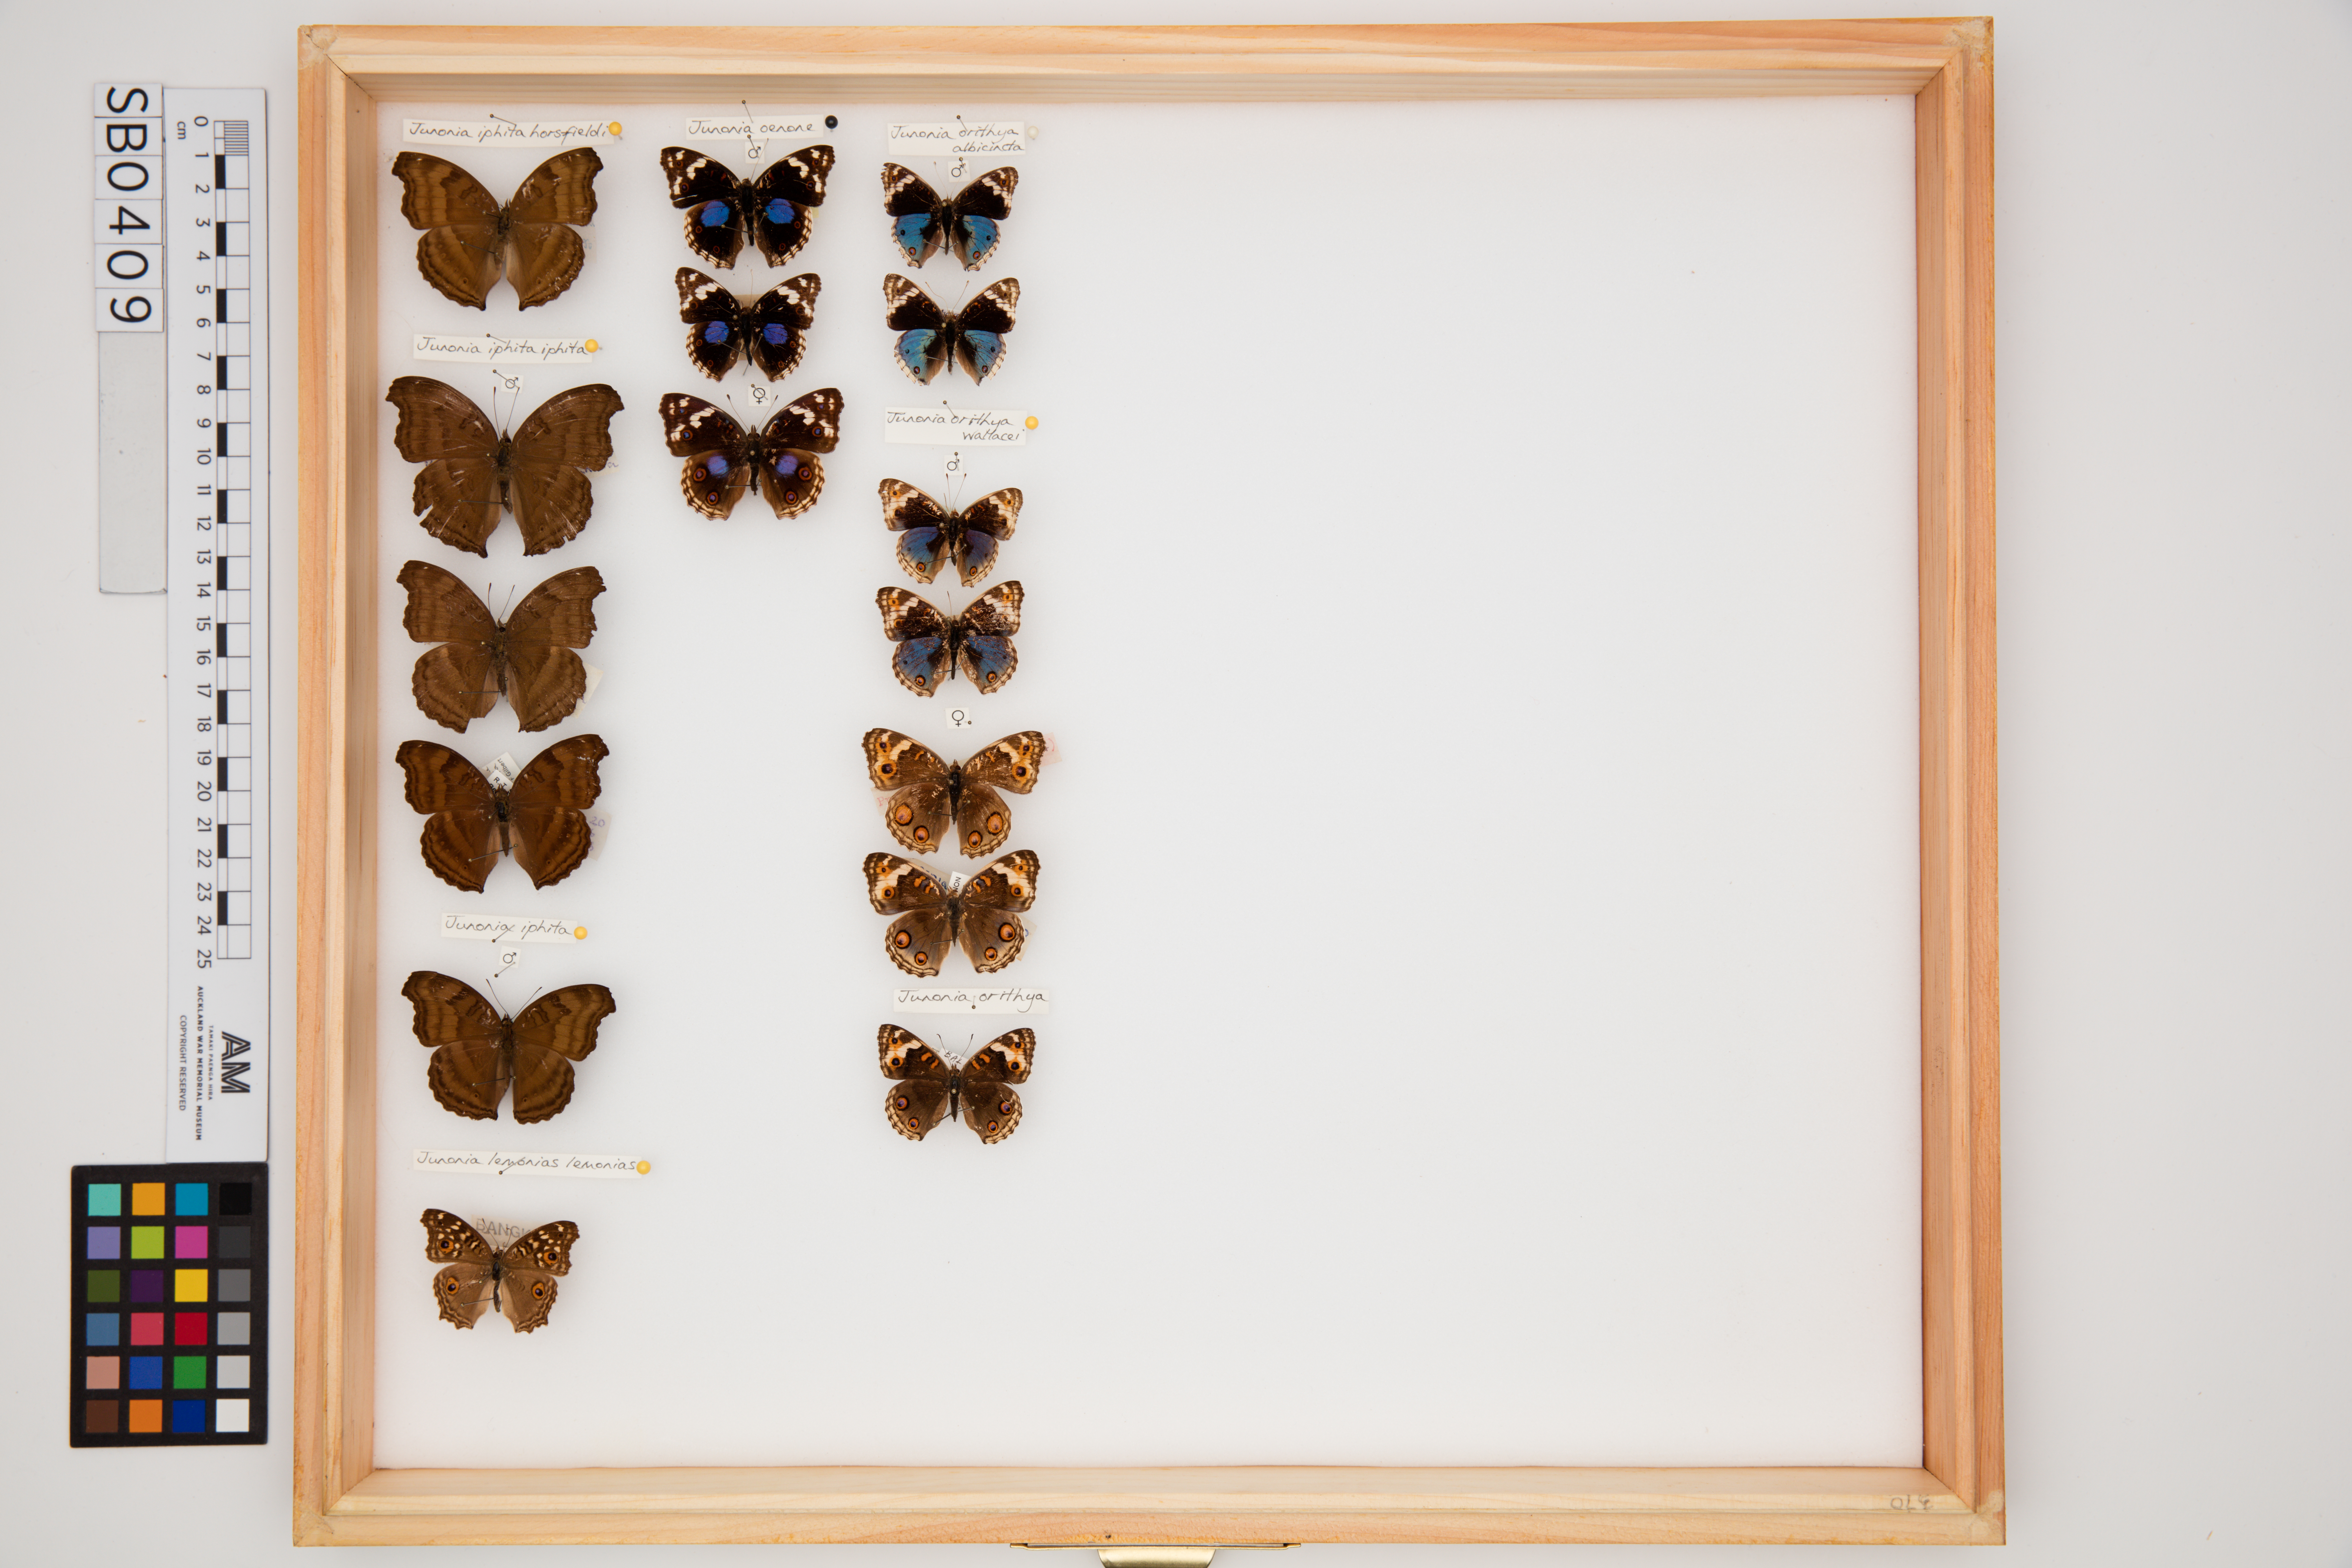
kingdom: Animalia
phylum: Arthropoda
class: Insecta
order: Lepidoptera
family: Nymphalidae
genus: Junonia
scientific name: Junonia orithya
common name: Blue pansy
